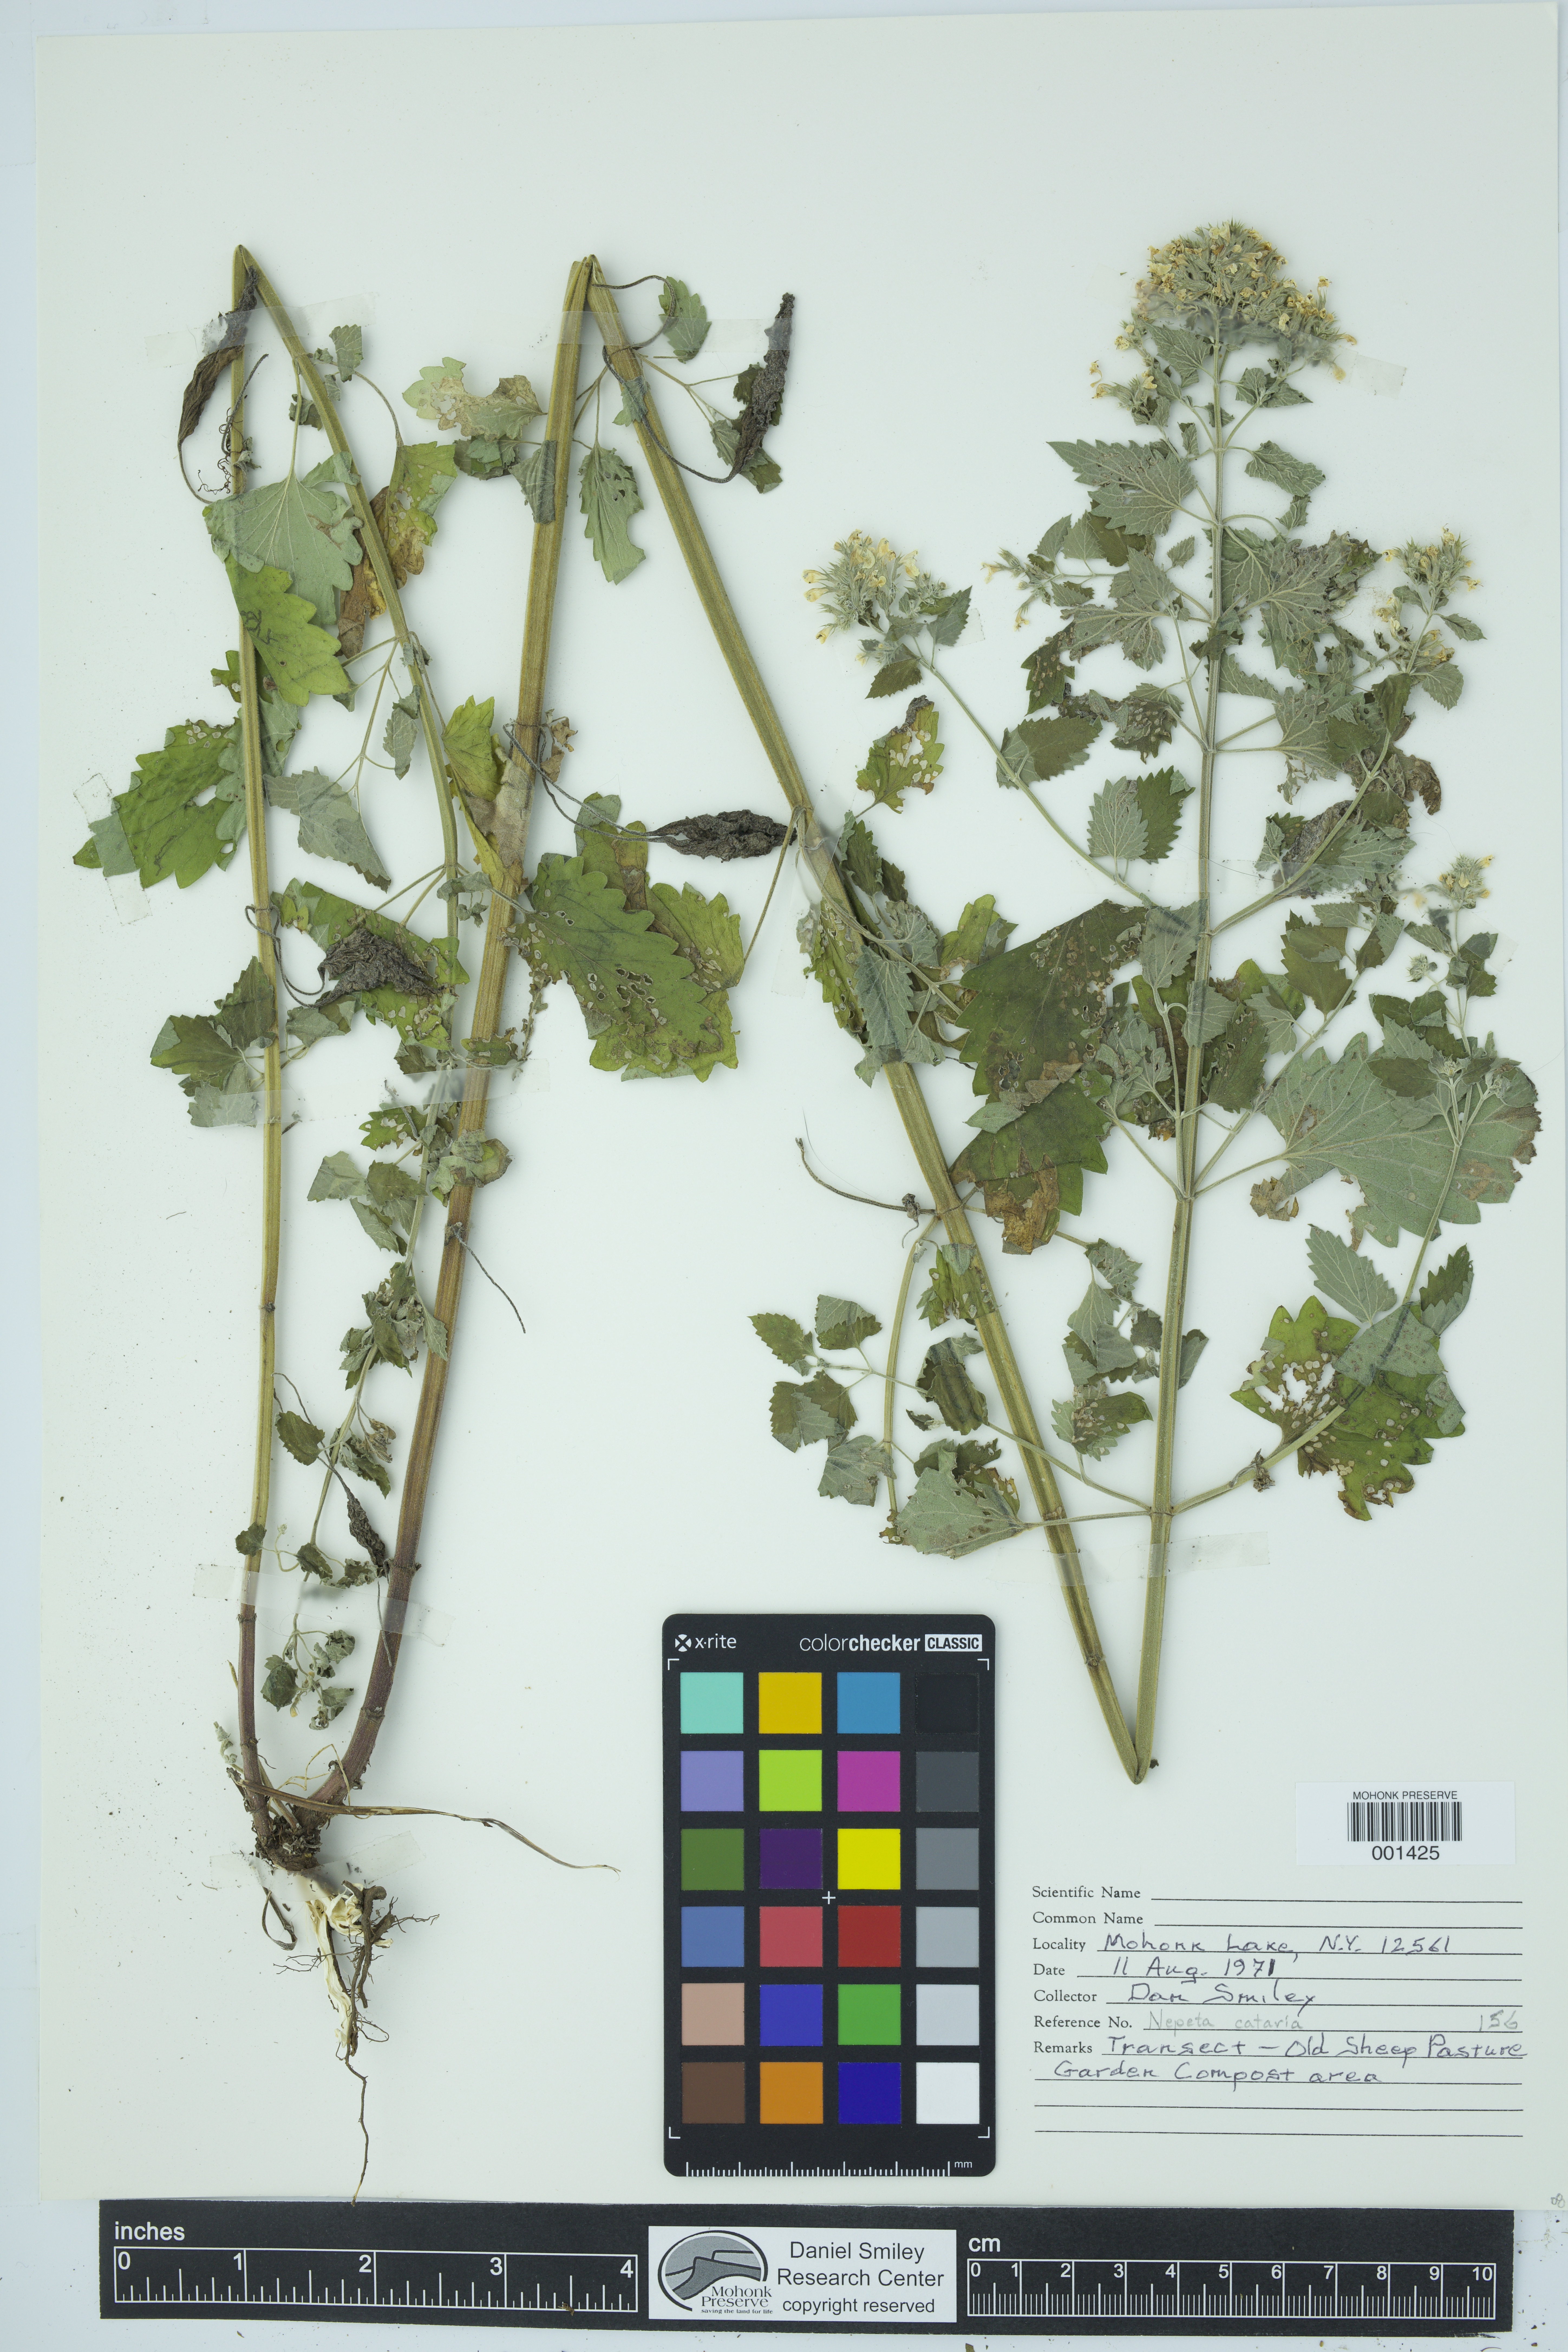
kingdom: Plantae
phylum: Tracheophyta
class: Magnoliopsida
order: Lamiales
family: Lamiaceae
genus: Nepeta
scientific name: Nepeta cataria
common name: Catnip
